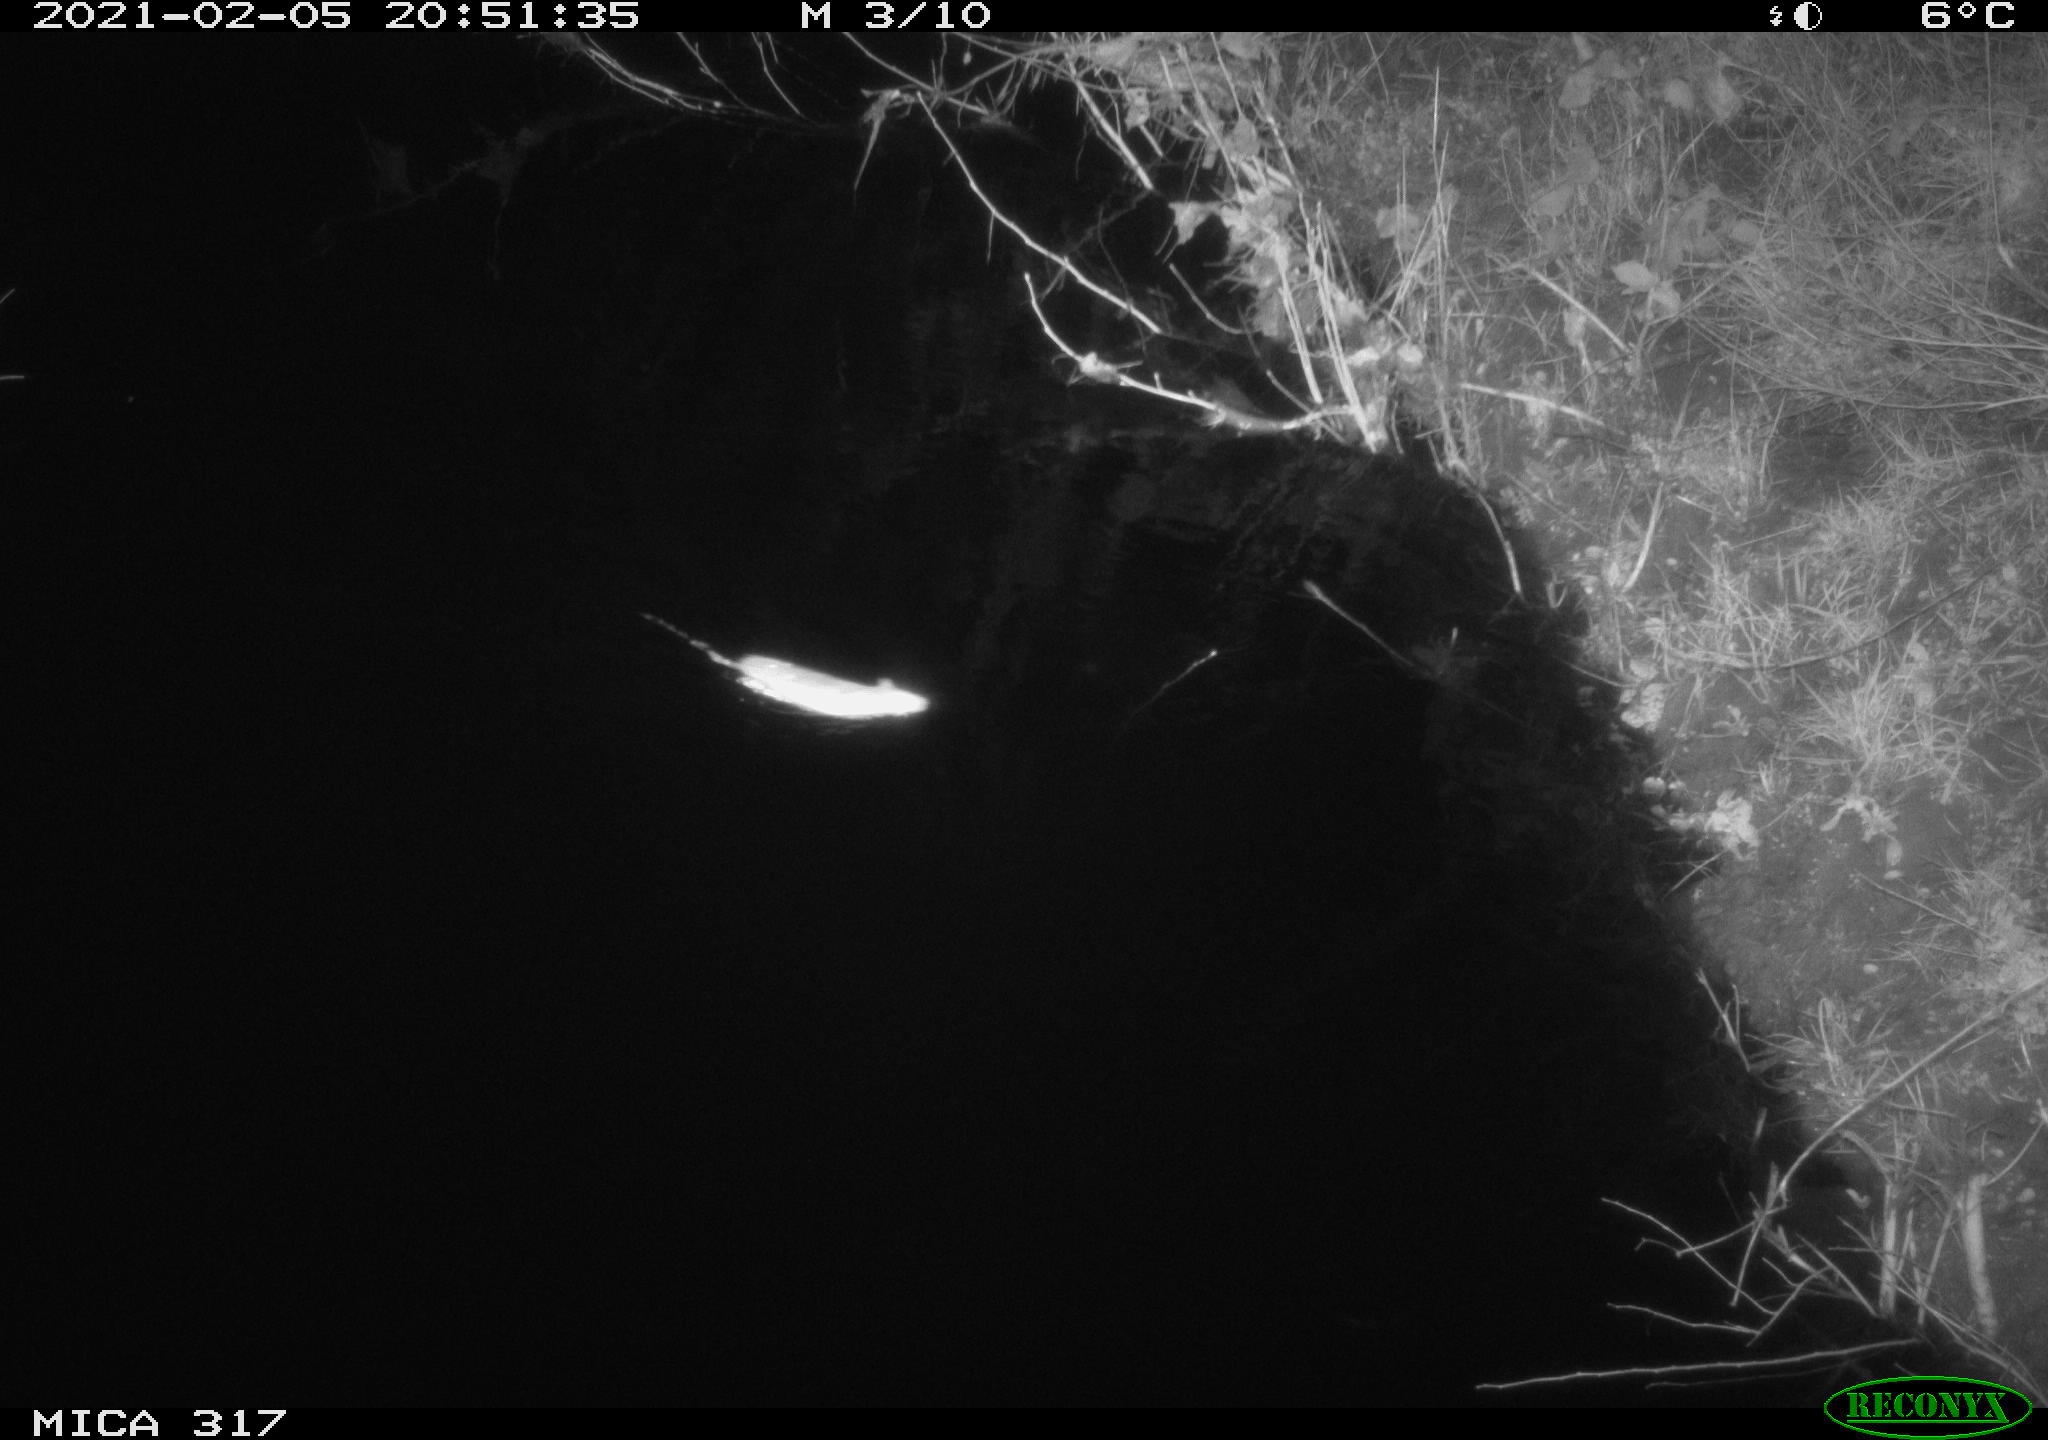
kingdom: Animalia
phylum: Chordata
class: Mammalia
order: Rodentia
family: Muridae
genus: Rattus
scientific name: Rattus norvegicus
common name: Brown rat
